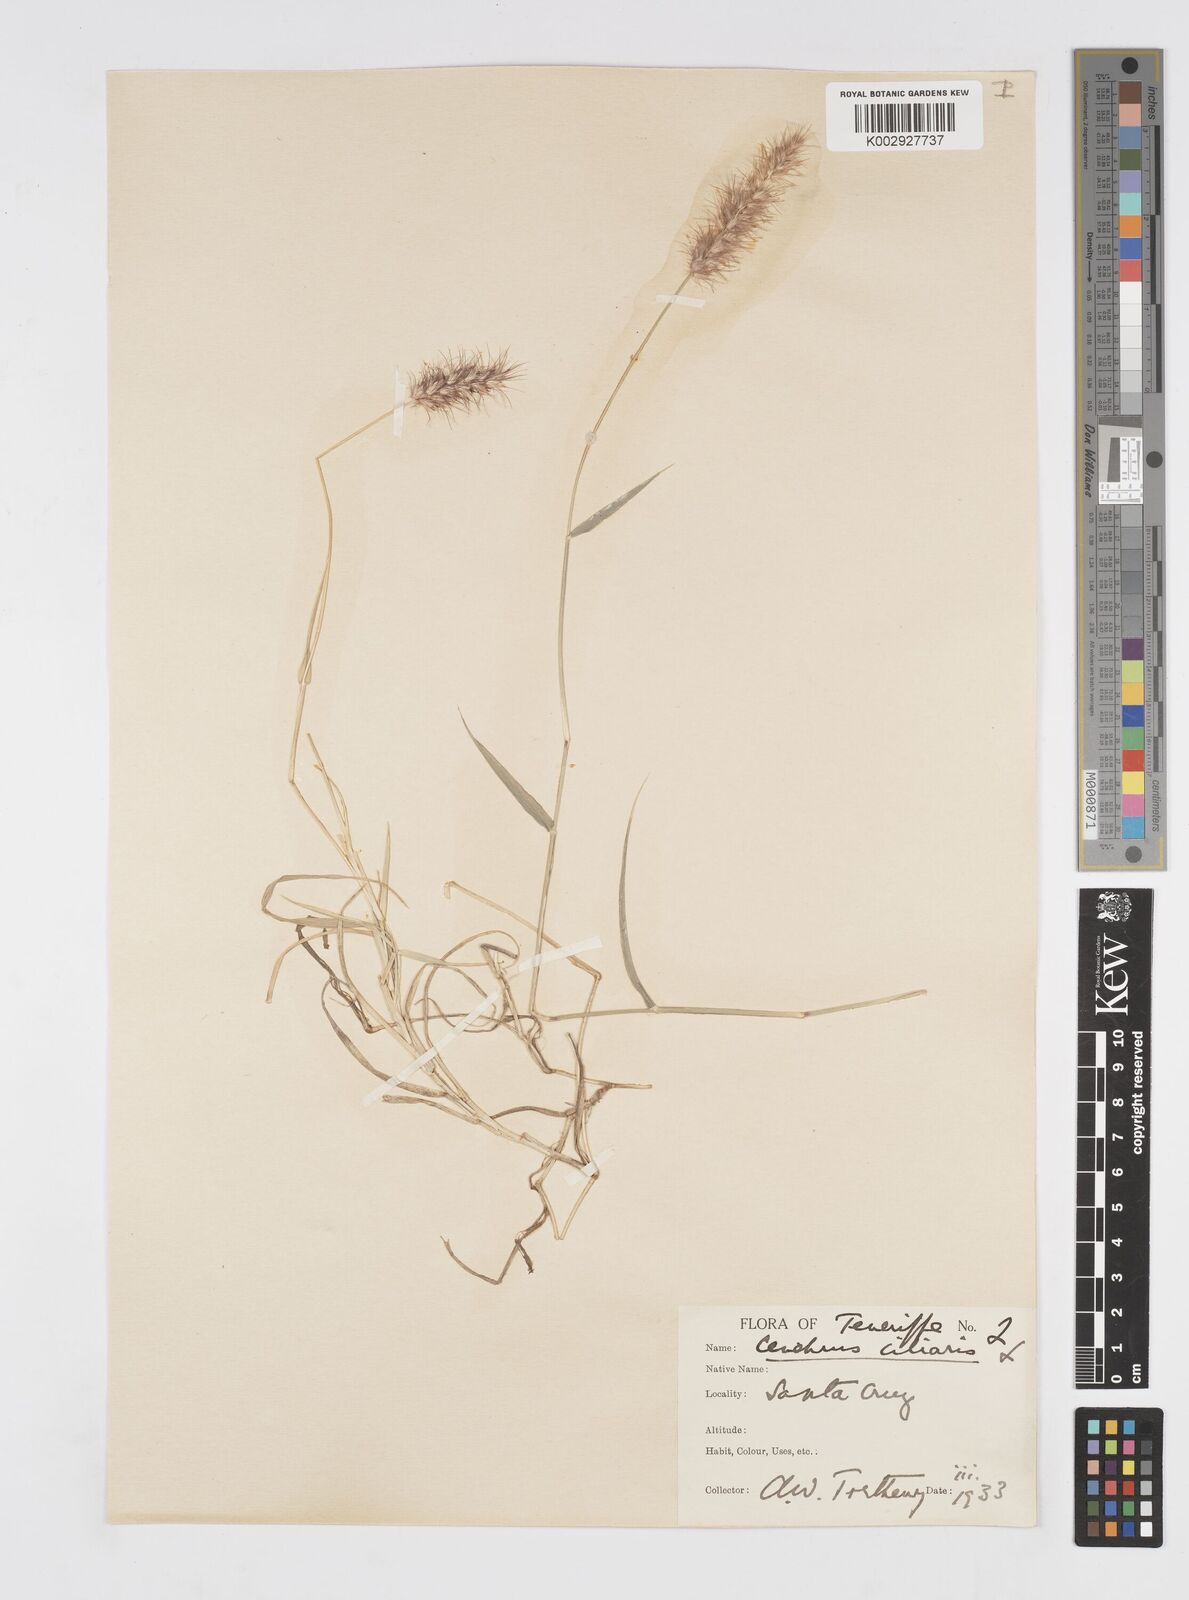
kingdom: Plantae
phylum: Tracheophyta
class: Liliopsida
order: Poales
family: Poaceae
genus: Cenchrus
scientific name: Cenchrus ciliaris
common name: Buffelgrass
